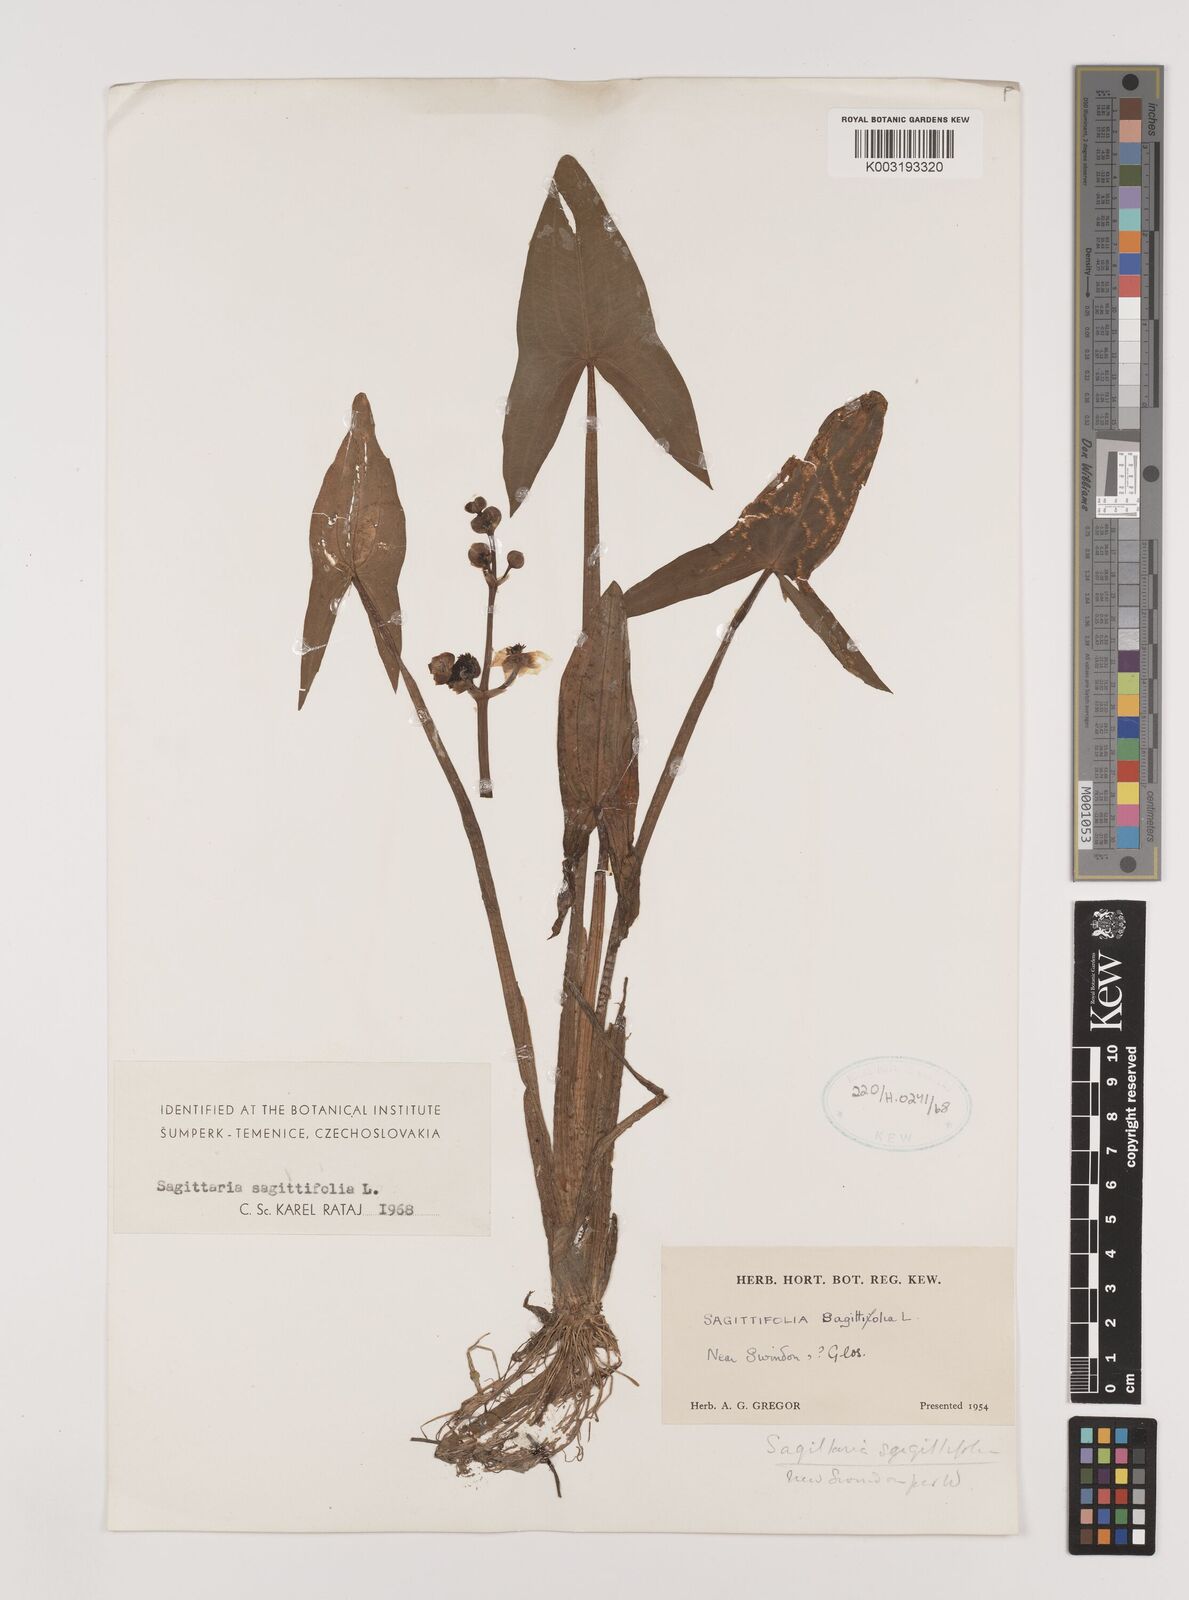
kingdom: Plantae
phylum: Tracheophyta
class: Liliopsida
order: Alismatales
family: Alismataceae
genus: Sagittaria
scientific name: Sagittaria sagittifolia
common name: Arrowhead
